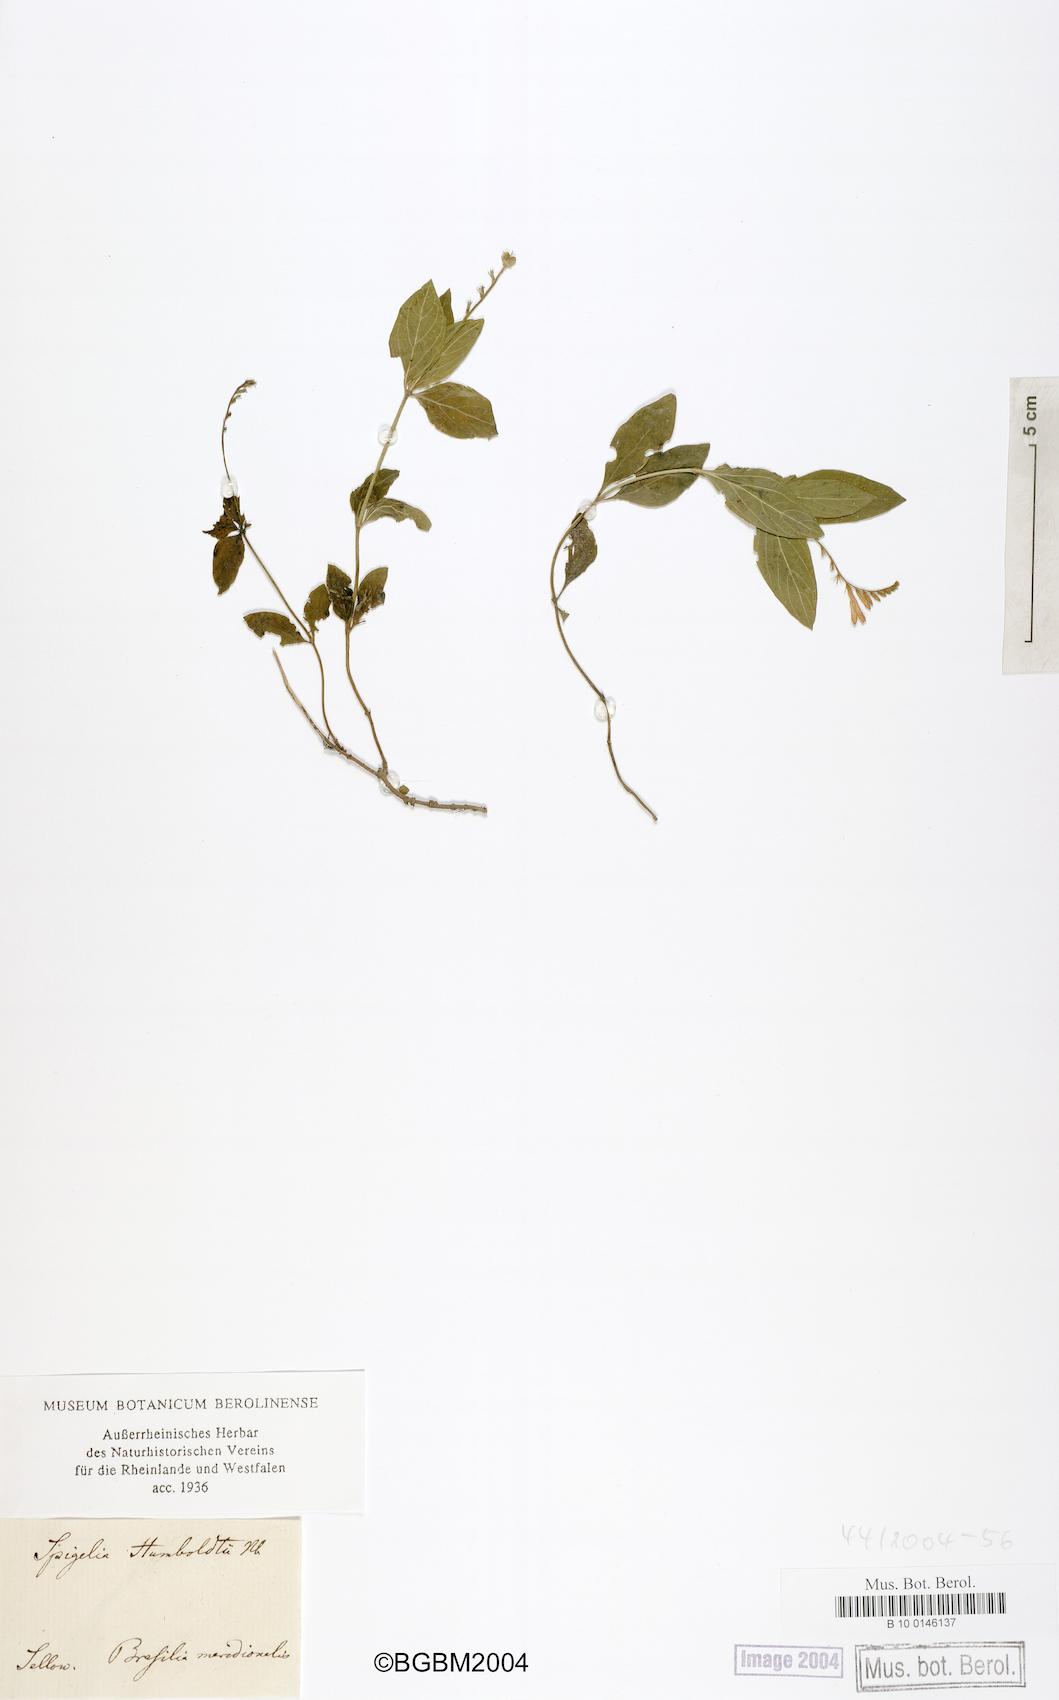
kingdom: Plantae
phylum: Tracheophyta
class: Magnoliopsida
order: Gentianales
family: Loganiaceae
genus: Spigelia
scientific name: Spigelia humboldtiana
